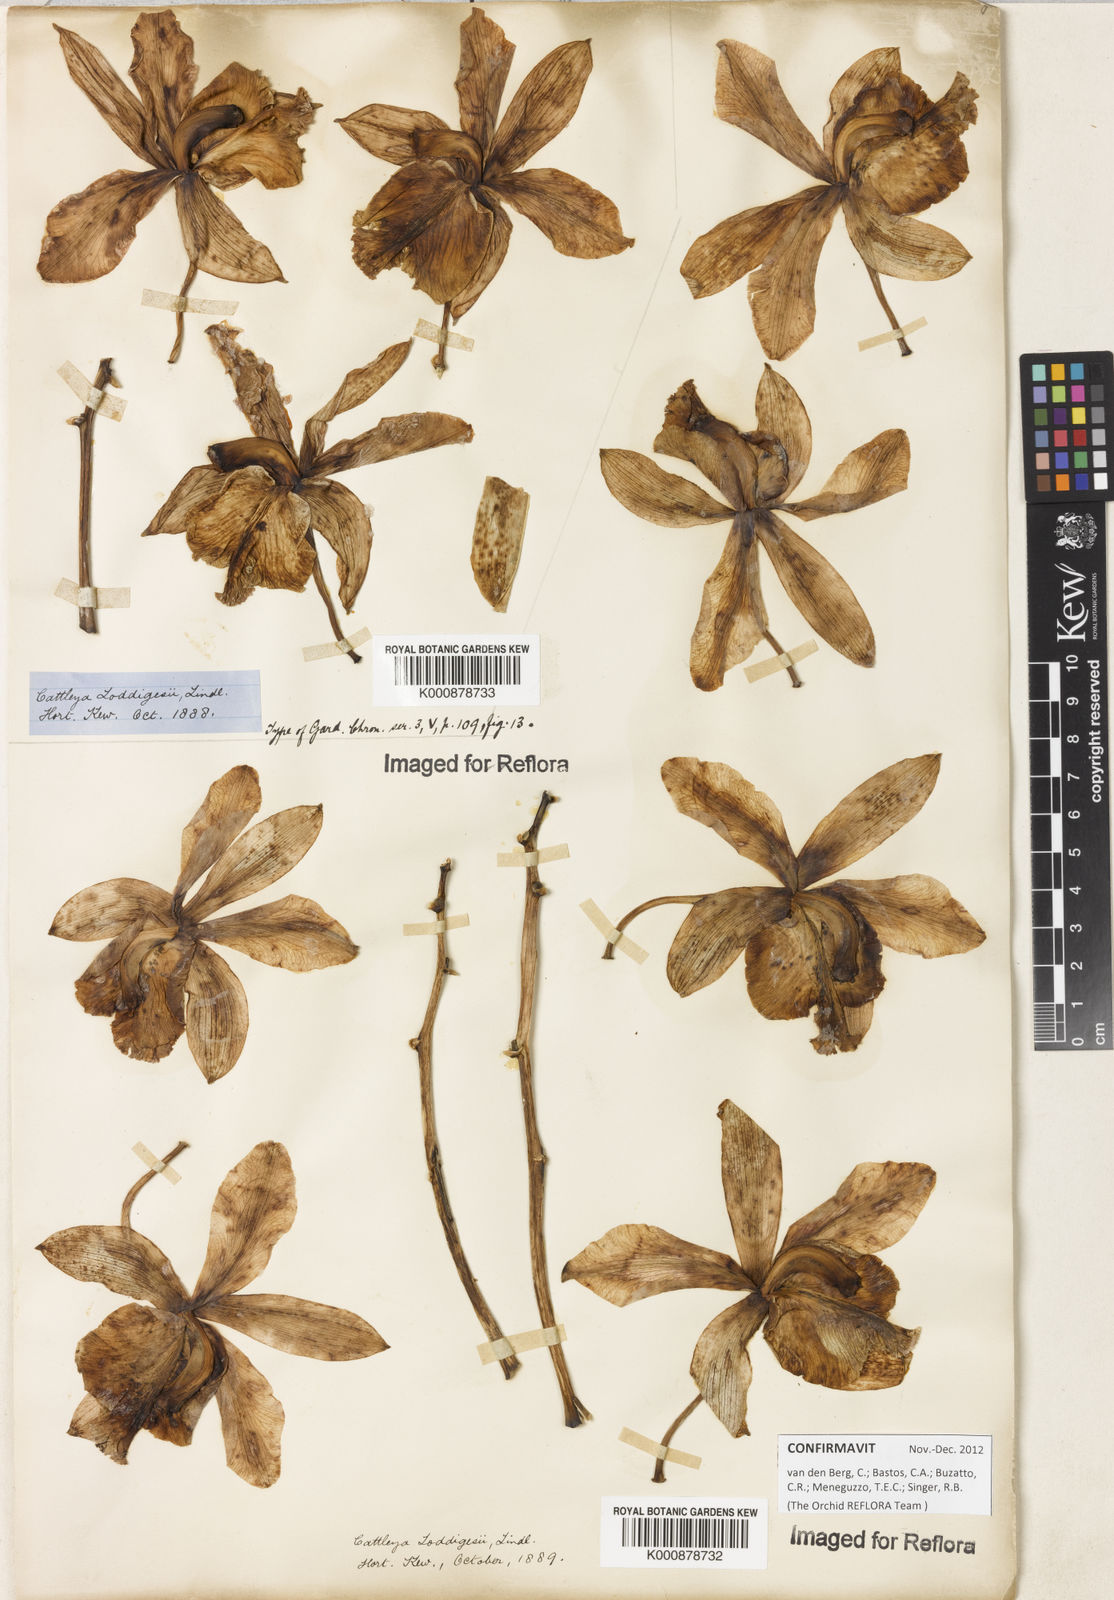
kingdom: Plantae
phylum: Tracheophyta
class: Liliopsida
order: Asparagales
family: Orchidaceae
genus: Cattleya
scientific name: Cattleya loddigesii
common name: Loddiges's cattleya
